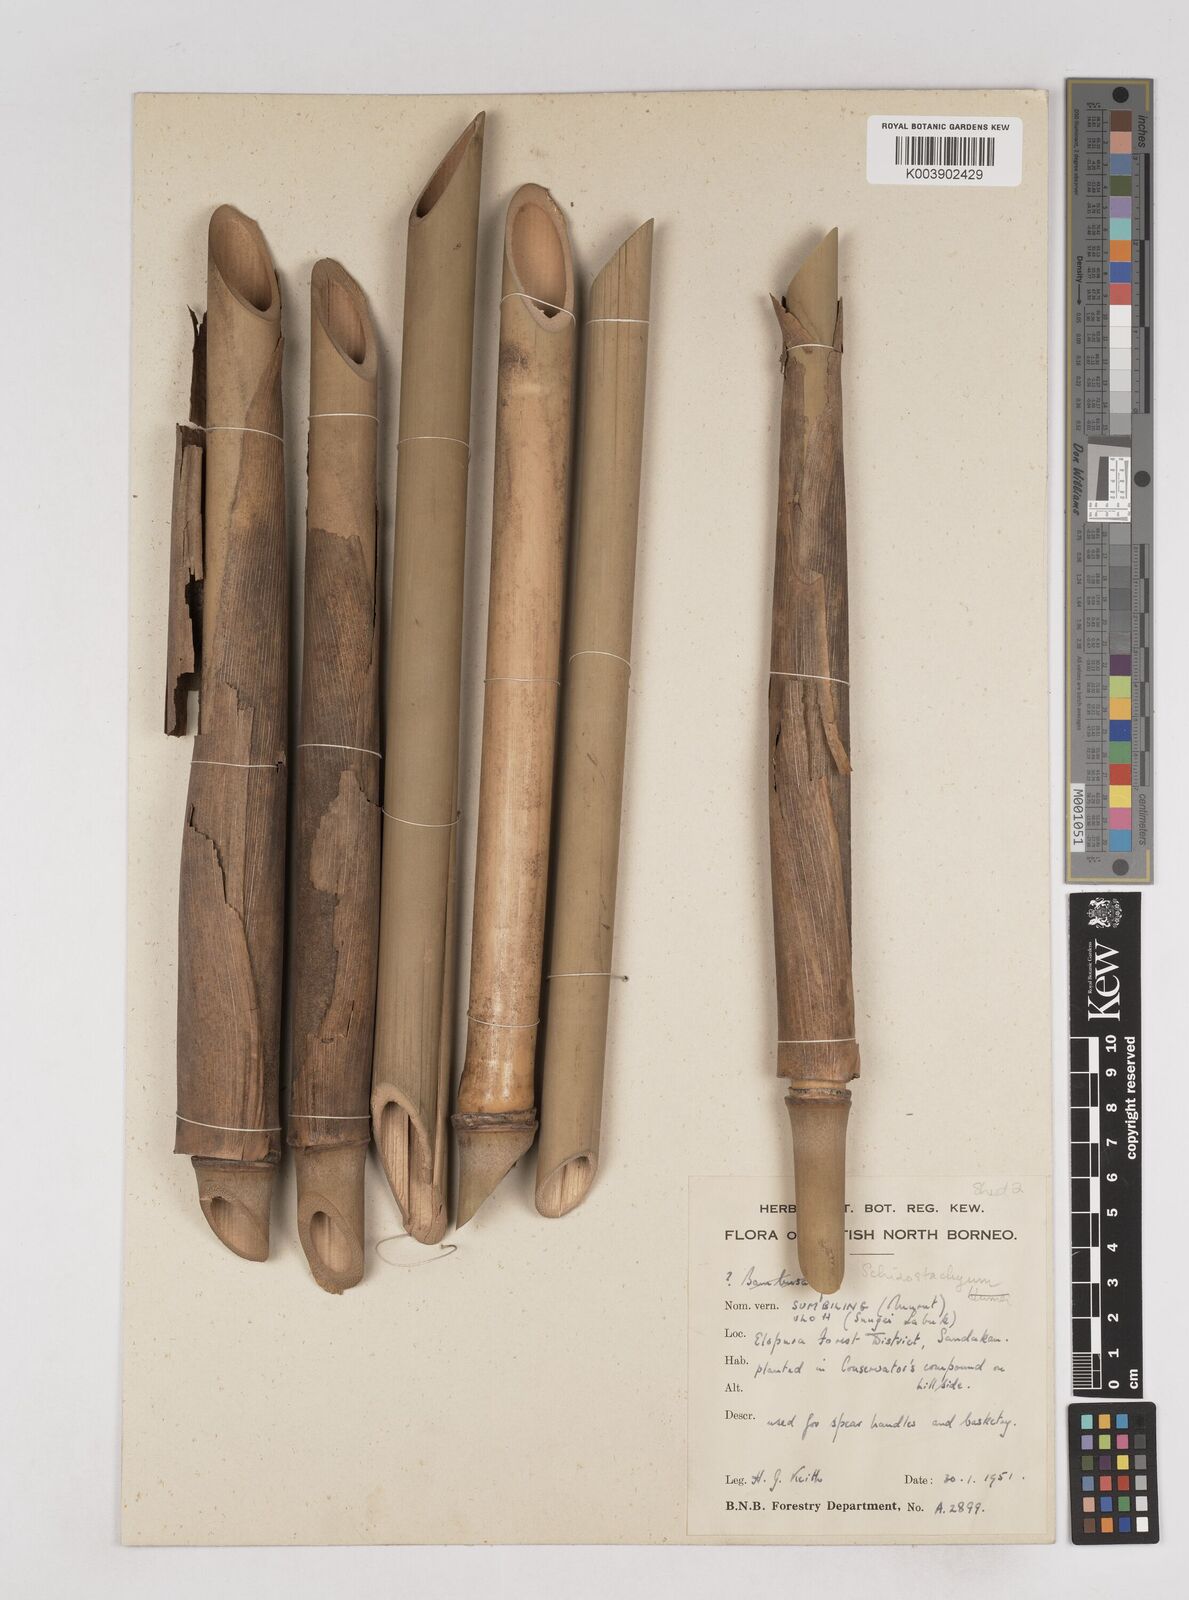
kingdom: Plantae
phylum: Tracheophyta
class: Liliopsida
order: Poales
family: Poaceae
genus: Schizostachyum
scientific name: Schizostachyum
